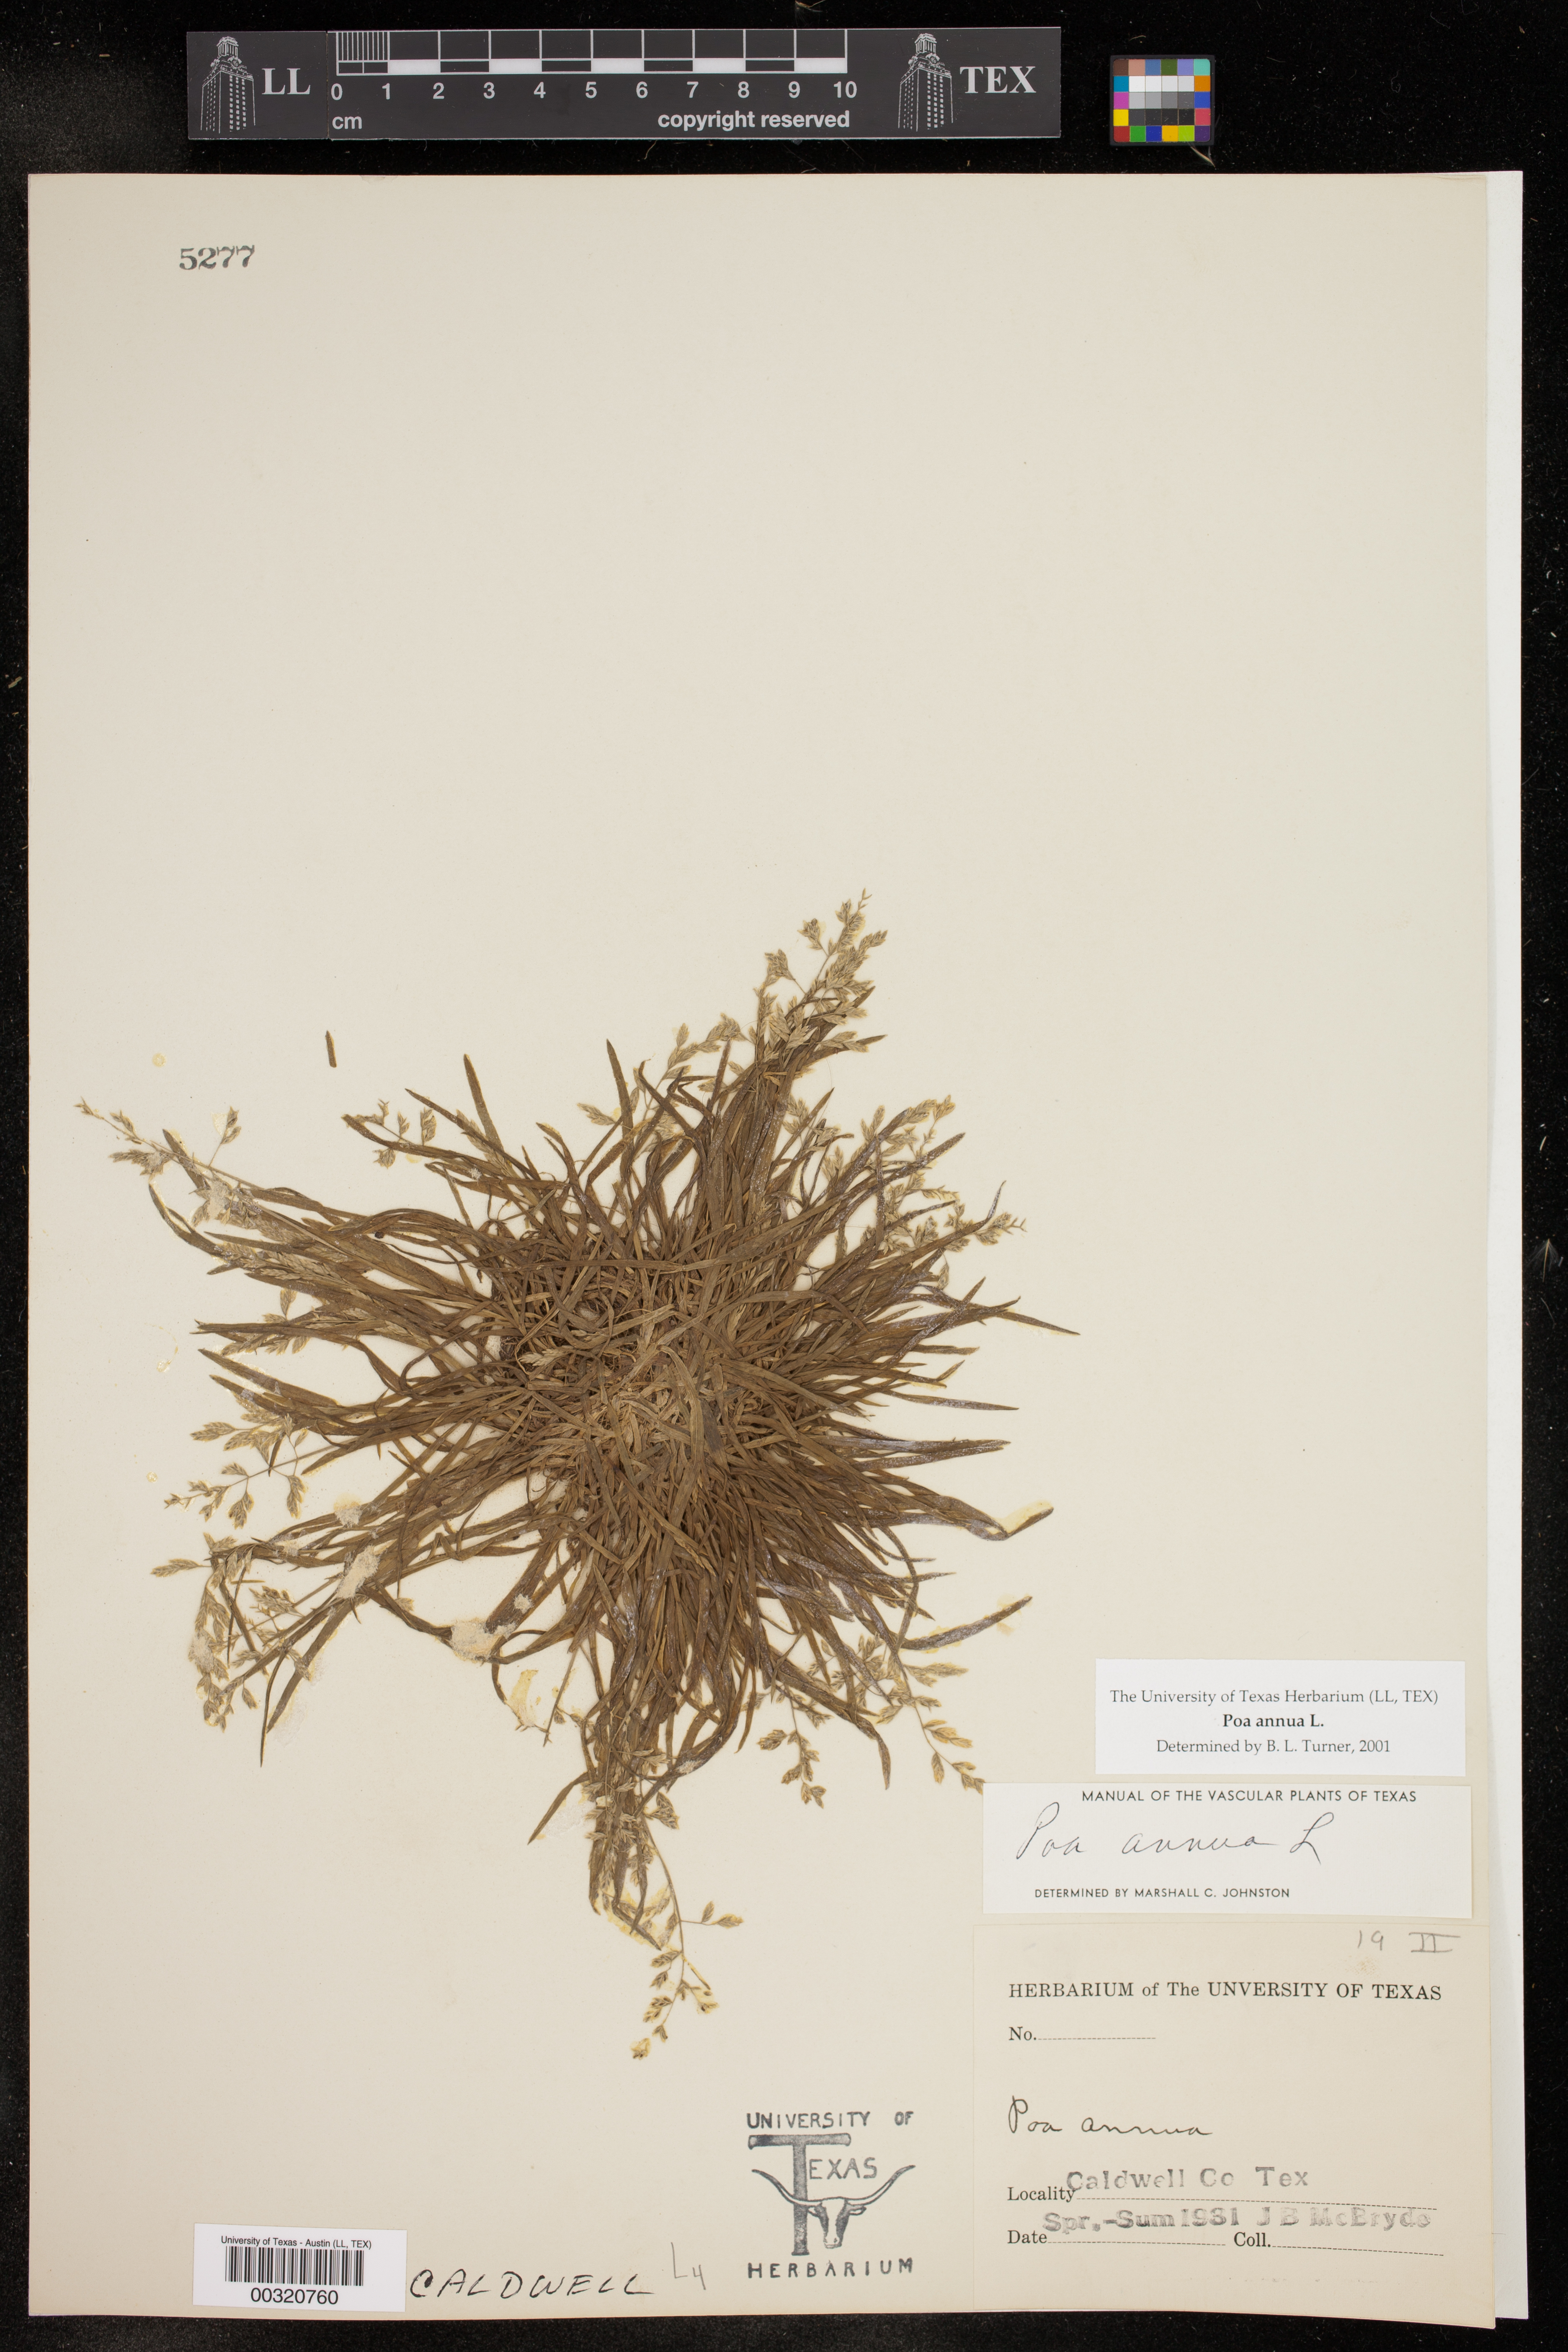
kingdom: Plantae
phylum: Tracheophyta
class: Liliopsida
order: Poales
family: Poaceae
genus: Poa
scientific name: Poa annua
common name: Annual bluegrass
